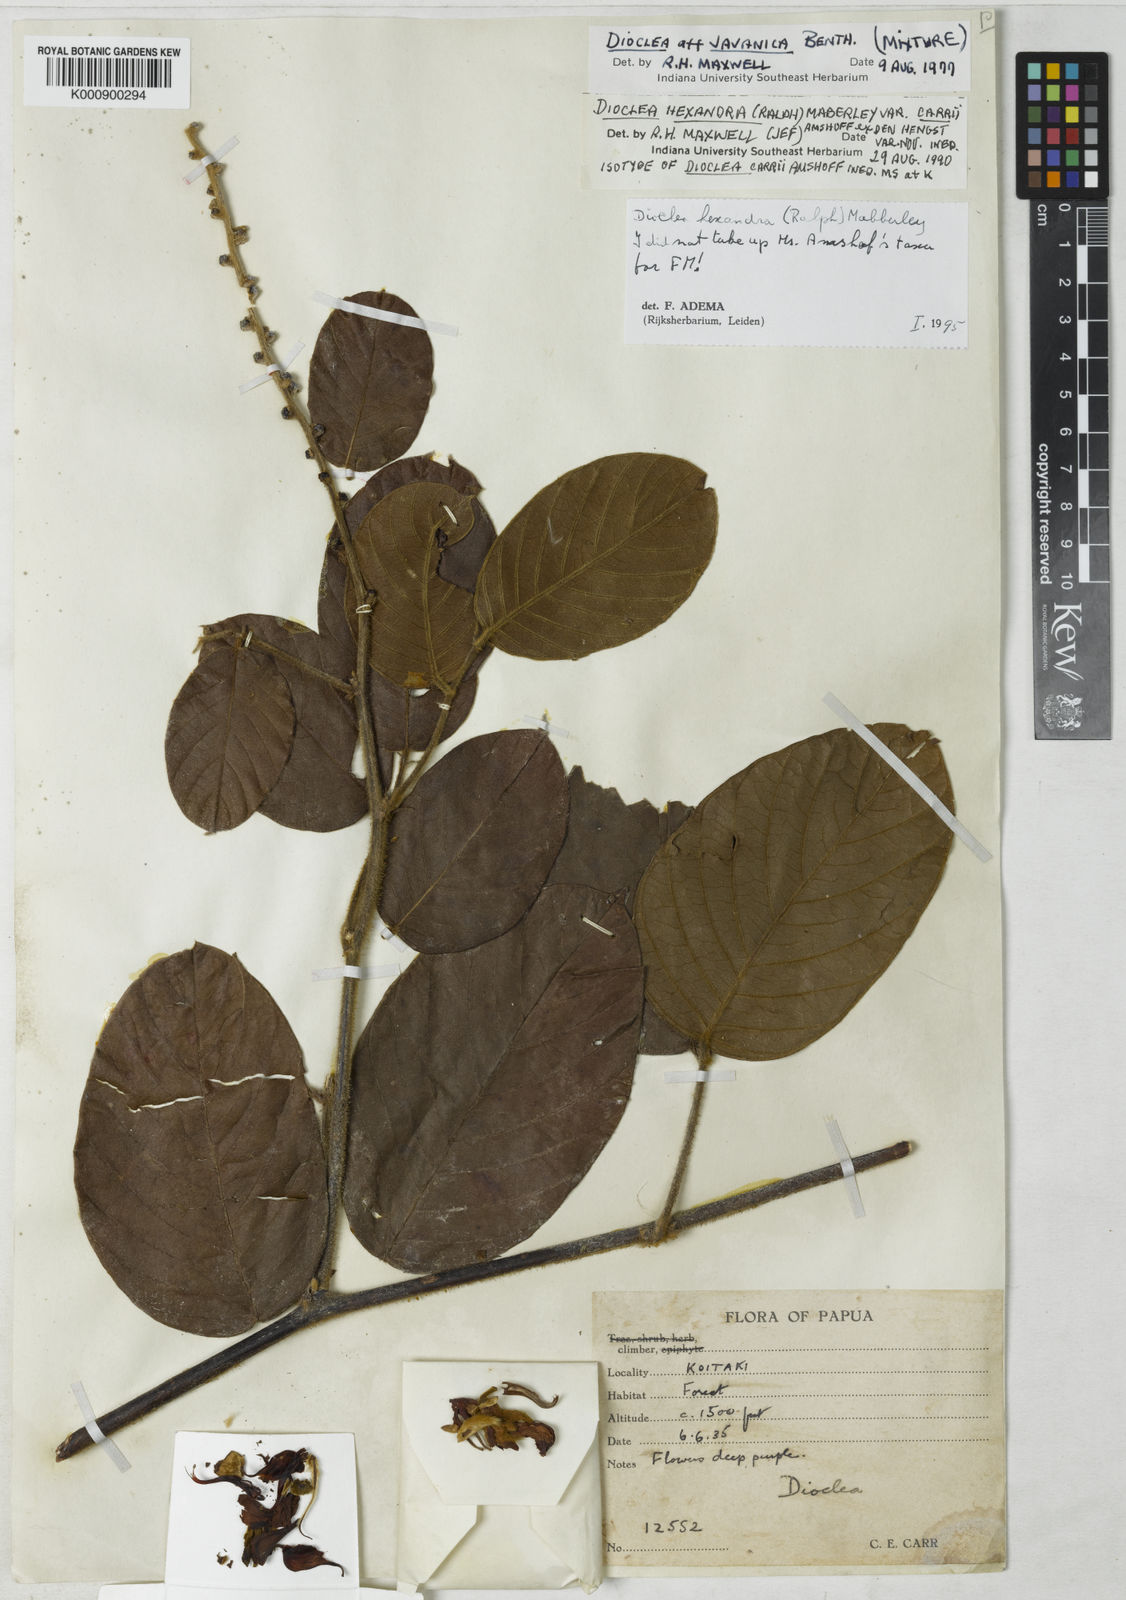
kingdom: Plantae
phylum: Tracheophyta
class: Magnoliopsida
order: Fabales
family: Fabaceae
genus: Macropsychanthus
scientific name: Macropsychanthus hexander
